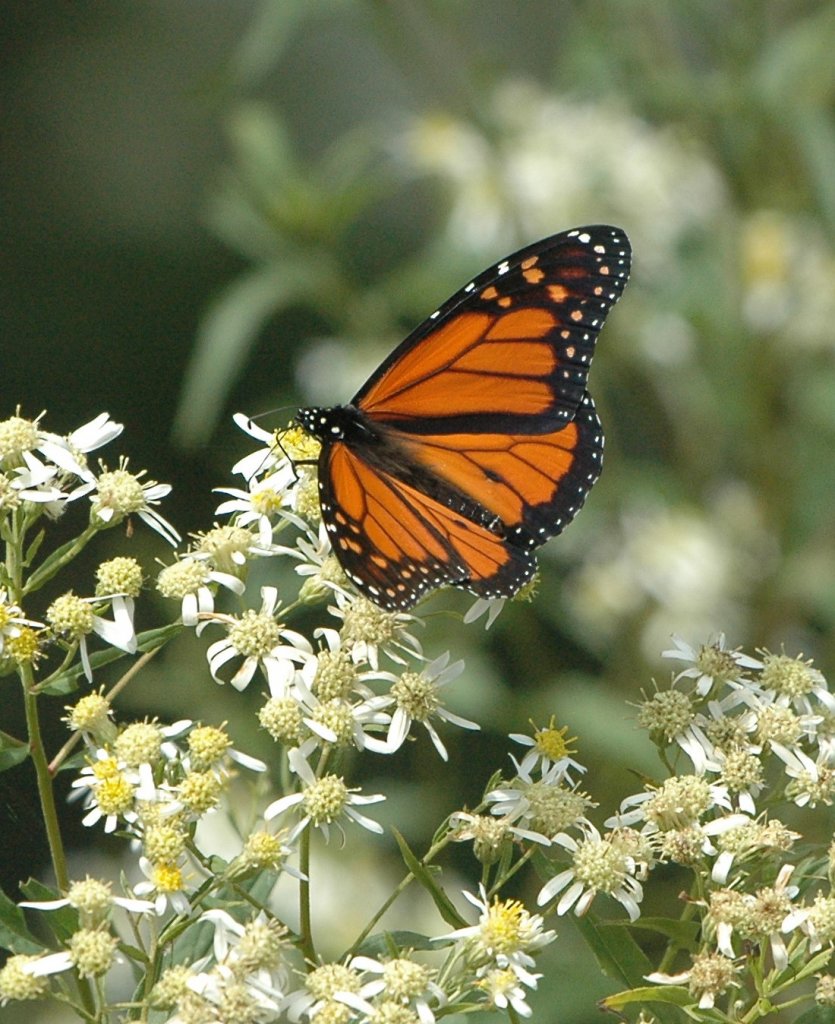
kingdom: Animalia
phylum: Arthropoda
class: Insecta
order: Lepidoptera
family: Nymphalidae
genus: Danaus
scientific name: Danaus plexippus
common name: Monarch
